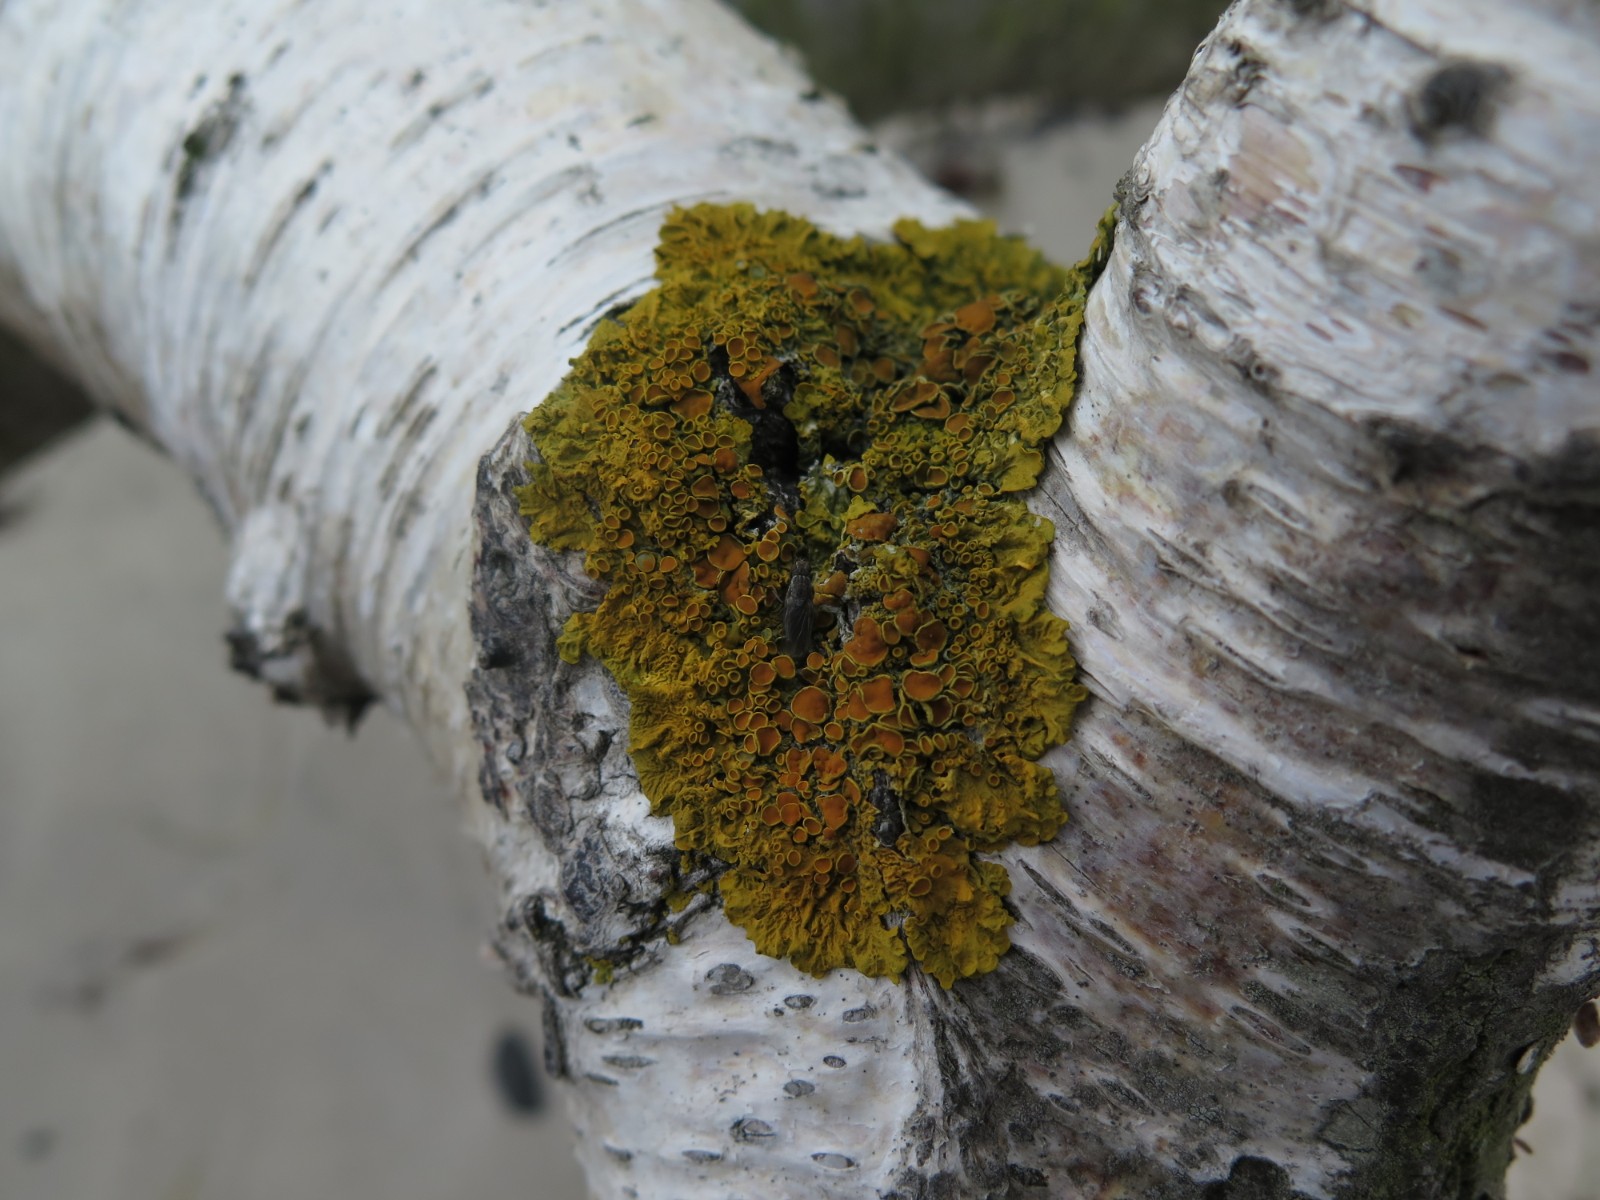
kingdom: Fungi
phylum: Ascomycota
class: Lecanoromycetes
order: Teloschistales
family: Teloschistaceae
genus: Xanthoria
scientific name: Xanthoria parietina
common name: almindelig væggelav
